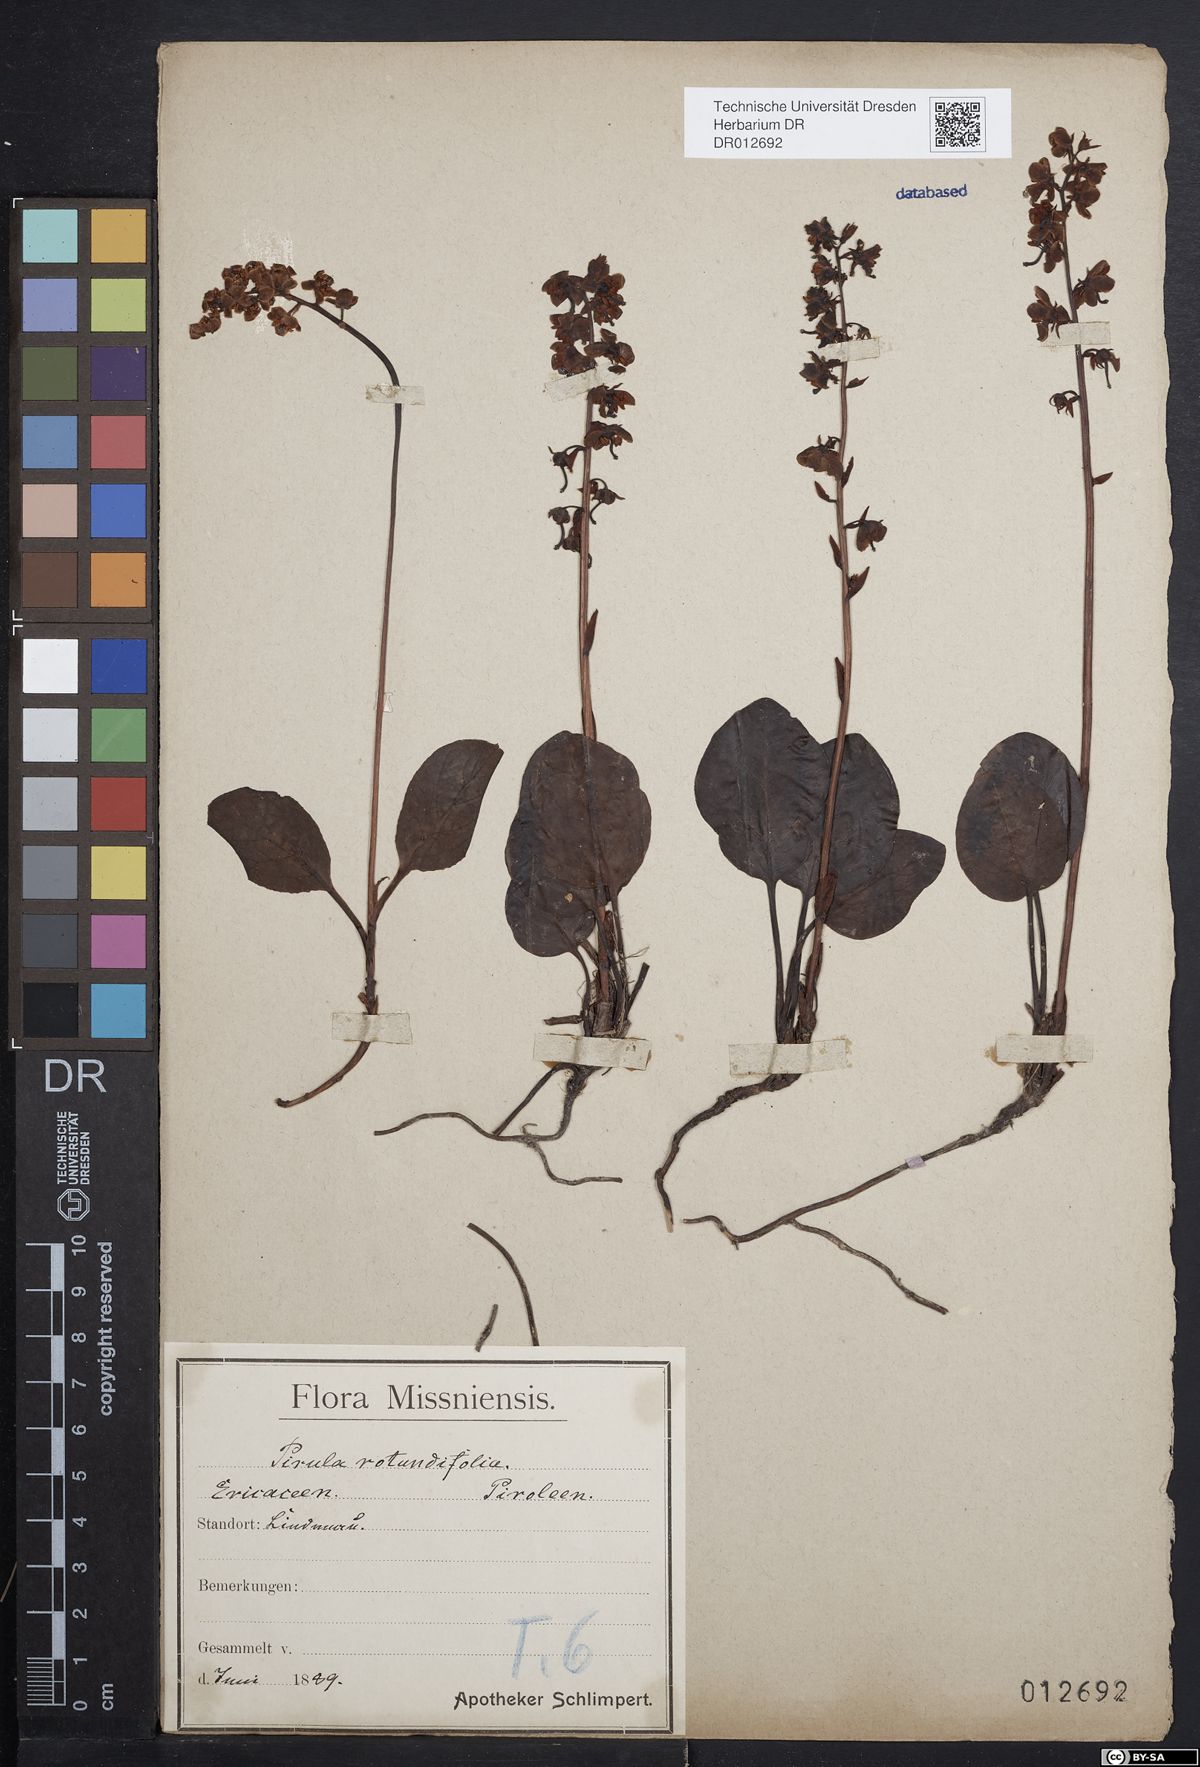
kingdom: Plantae
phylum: Tracheophyta
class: Magnoliopsida
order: Ericales
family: Ericaceae
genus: Pyrola
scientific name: Pyrola rotundifolia
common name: Round-leaved wintergreen
